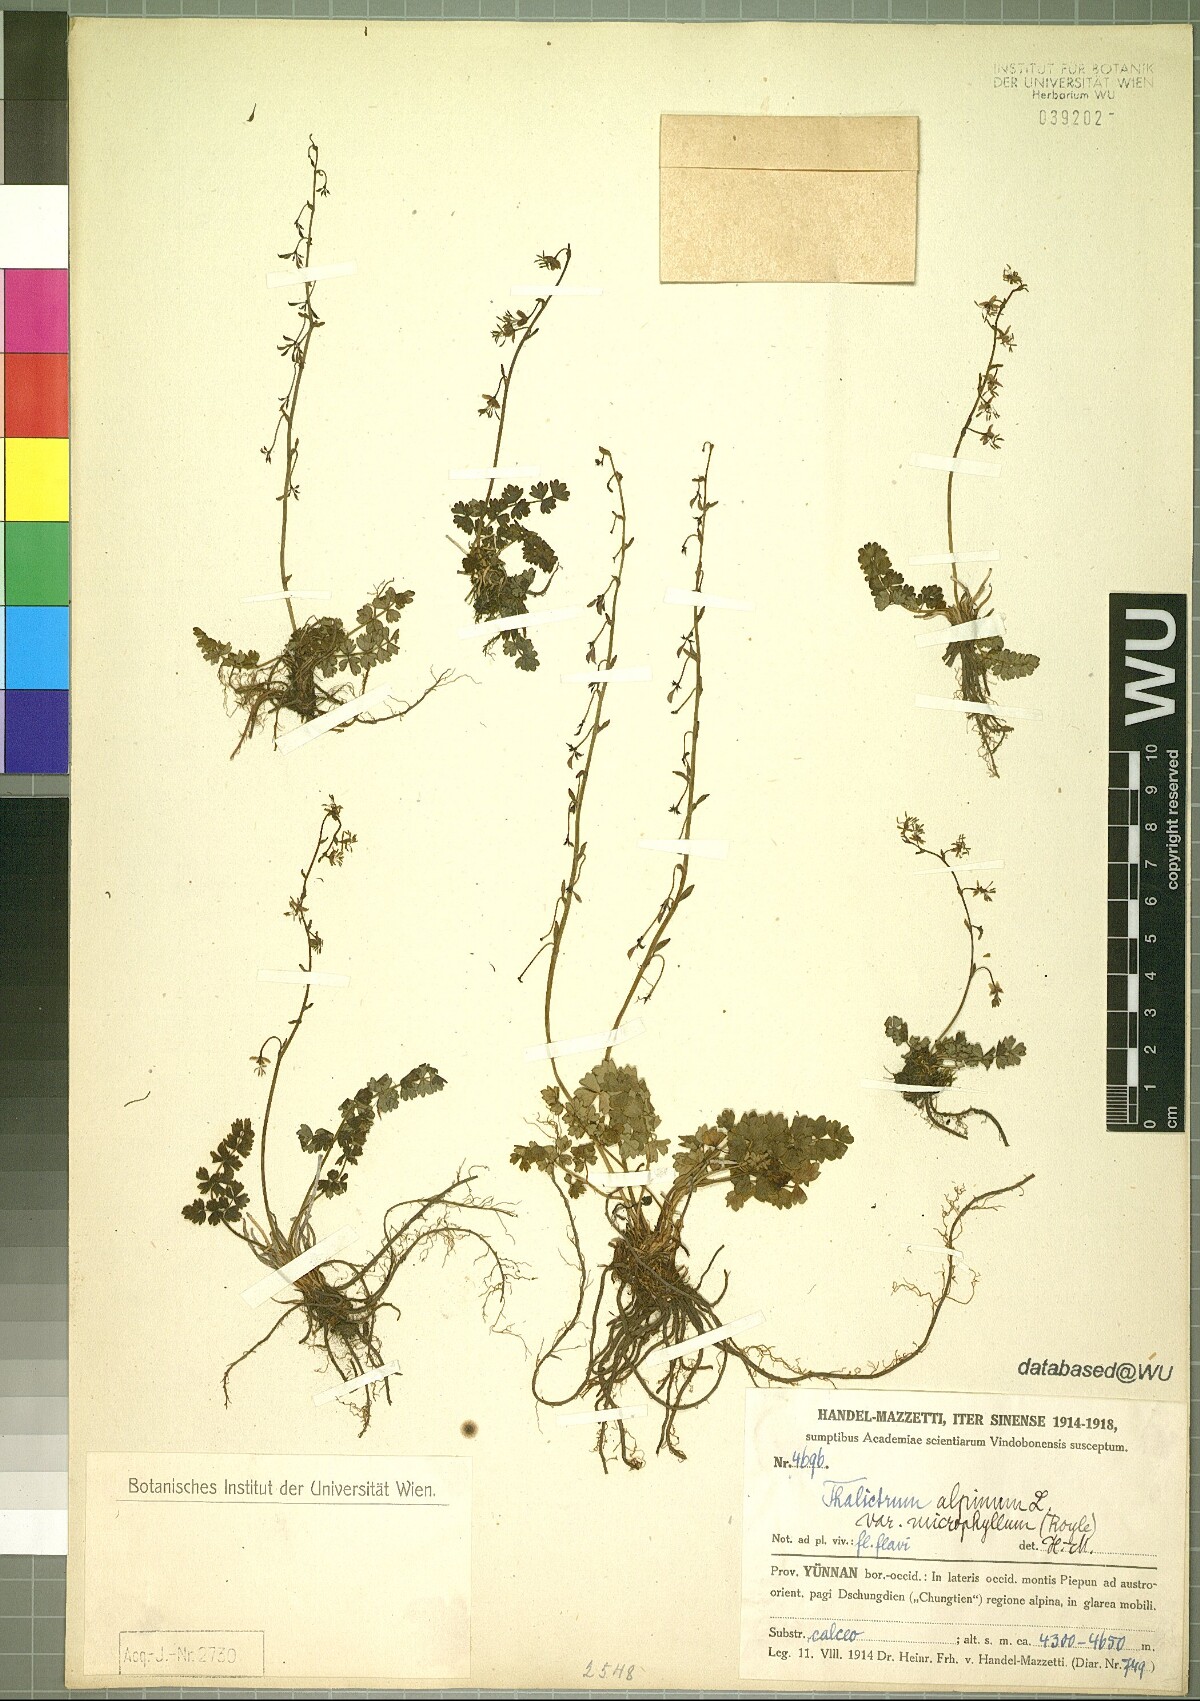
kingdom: Plantae
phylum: Tracheophyta
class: Magnoliopsida
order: Ranunculales
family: Ranunculaceae
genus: Thalictrum
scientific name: Thalictrum alpinum
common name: Alpine meadow-rue
